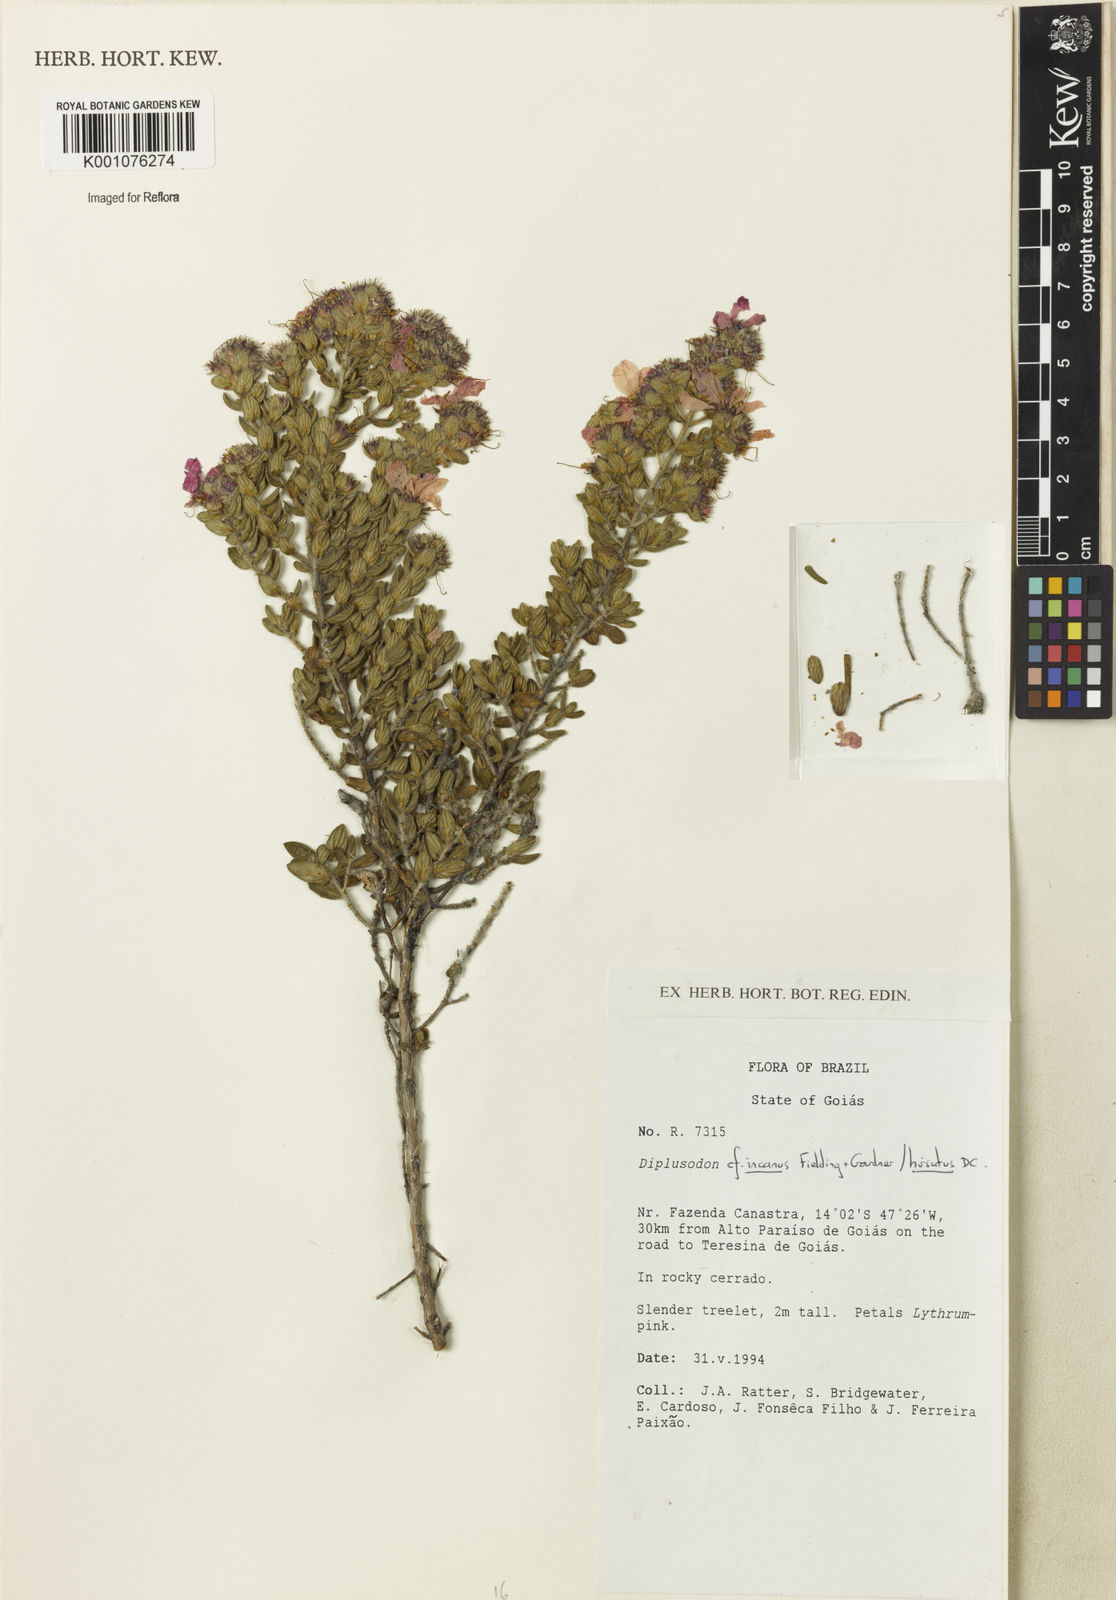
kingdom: Plantae
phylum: Tracheophyta
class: Magnoliopsida
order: Myrtales
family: Lythraceae
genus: Diplusodon
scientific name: Diplusodon incanus
